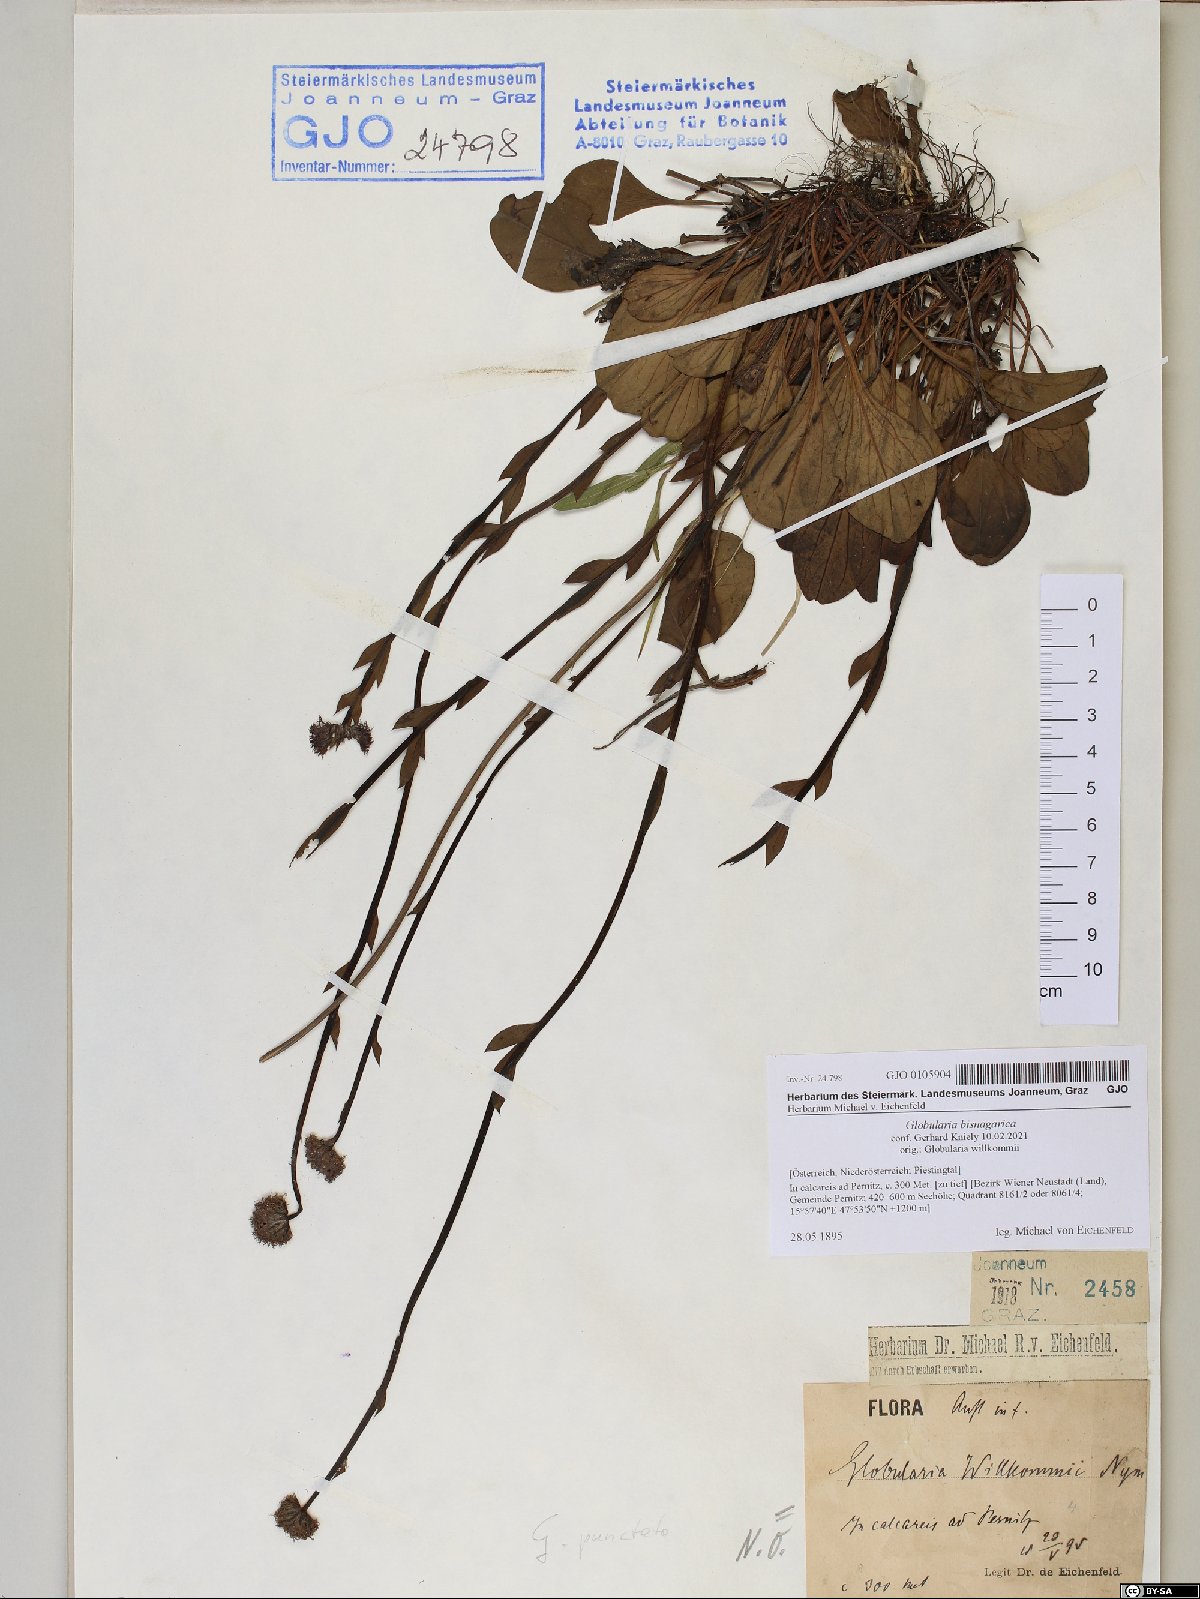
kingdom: Plantae
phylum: Tracheophyta
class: Magnoliopsida
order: Lamiales
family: Plantaginaceae
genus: Globularia
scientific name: Globularia bisnagarica
